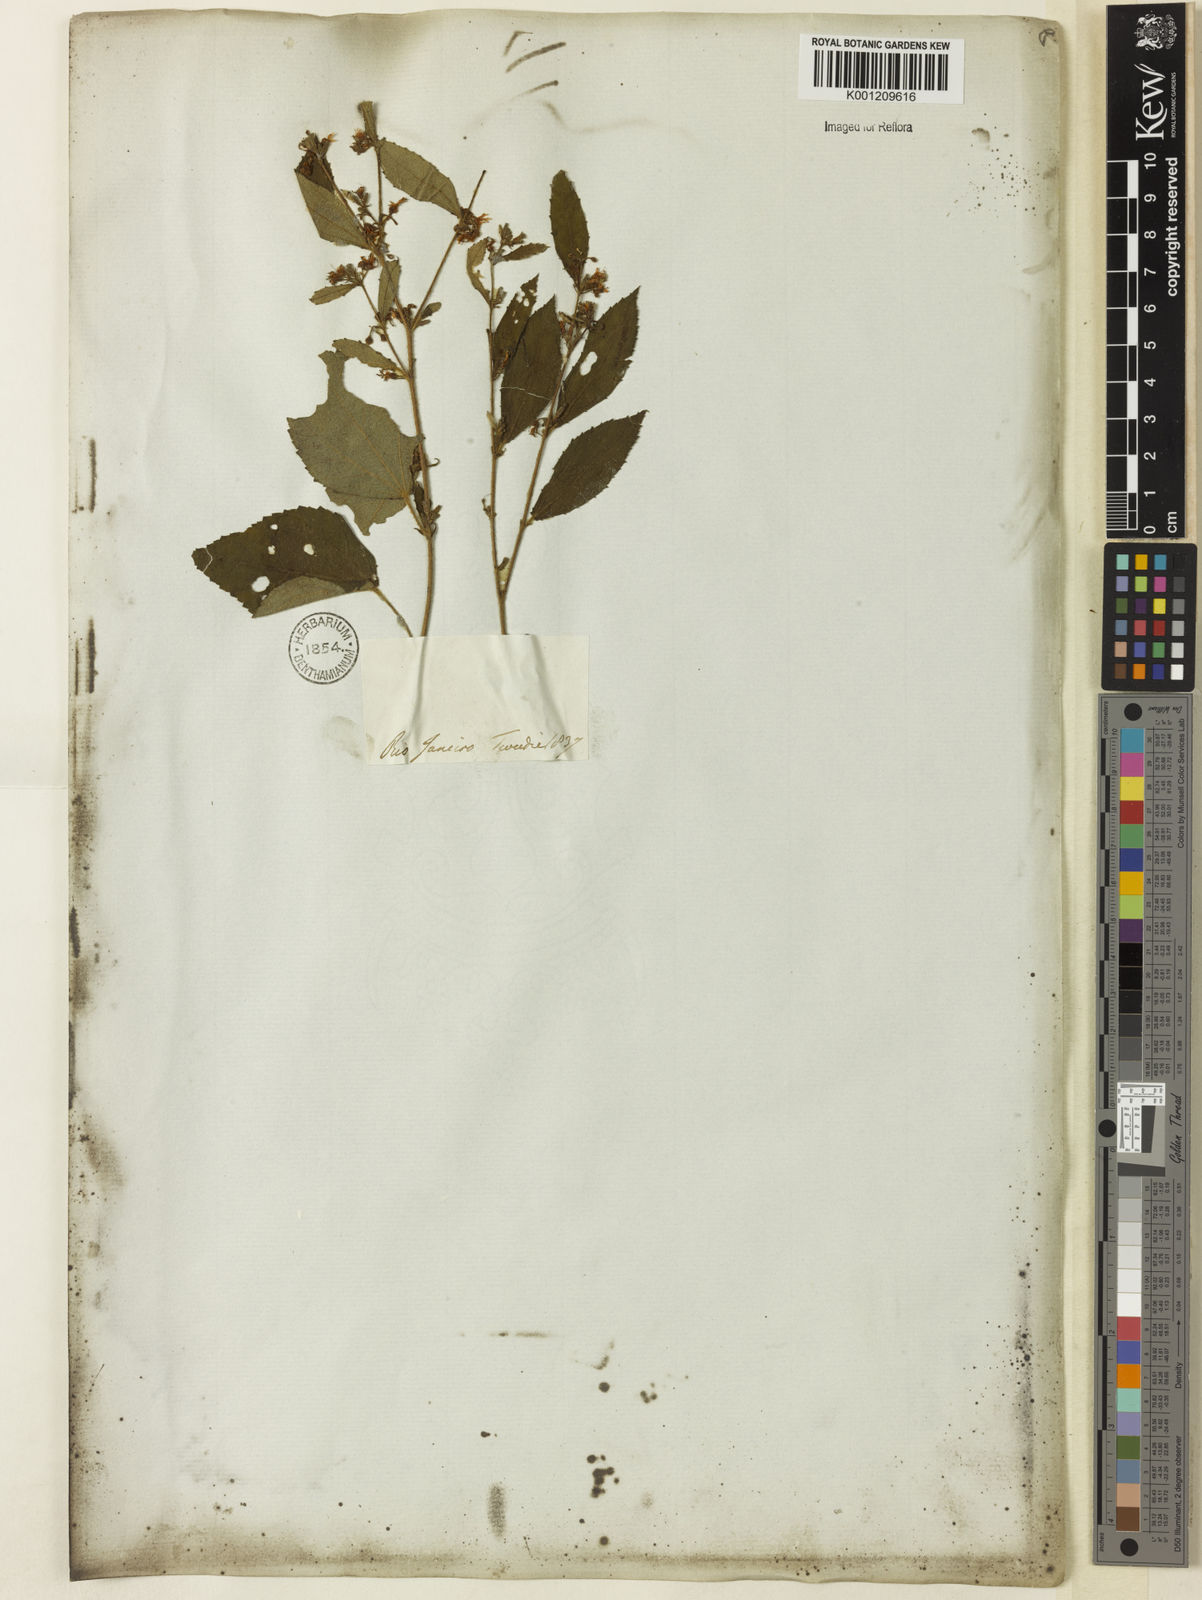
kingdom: Plantae
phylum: Tracheophyta
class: Magnoliopsida
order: Malvales
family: Malvaceae
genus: Triumfetta
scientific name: Triumfetta
